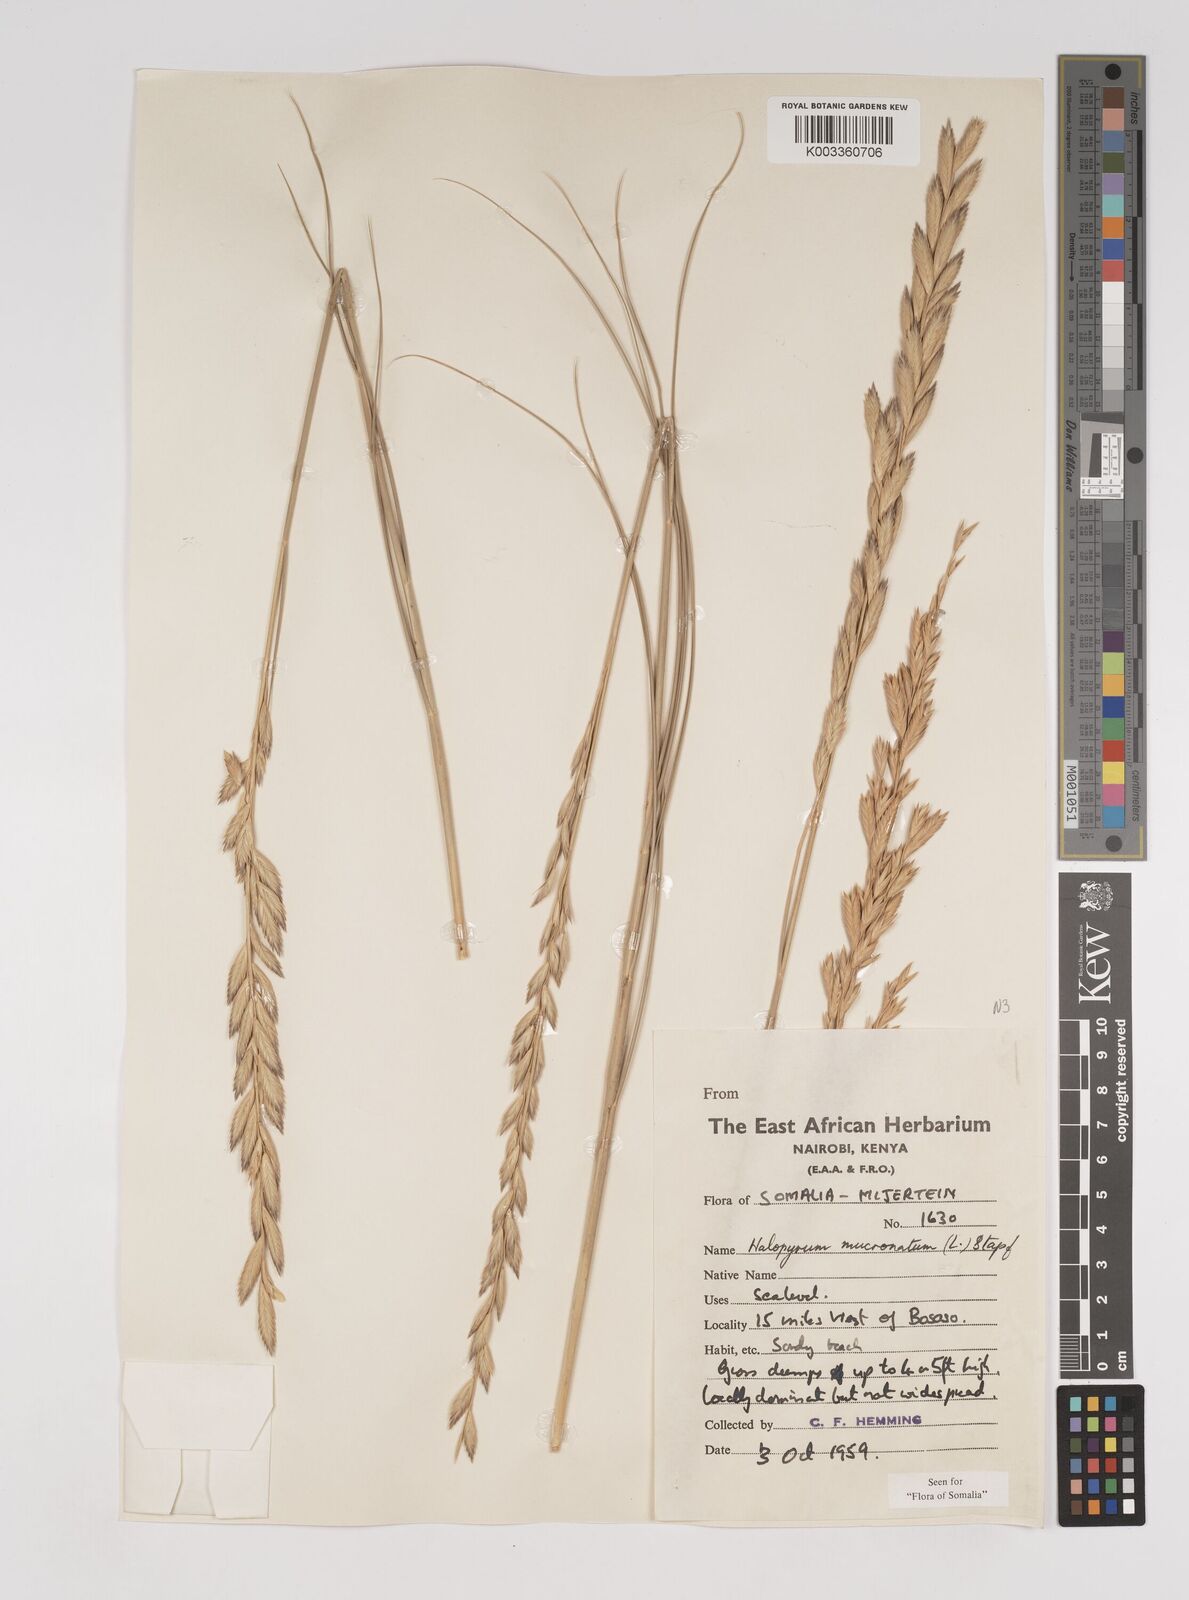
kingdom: Plantae
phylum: Tracheophyta
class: Liliopsida
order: Poales
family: Poaceae
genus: Halopyrum
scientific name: Halopyrum mucronatum
